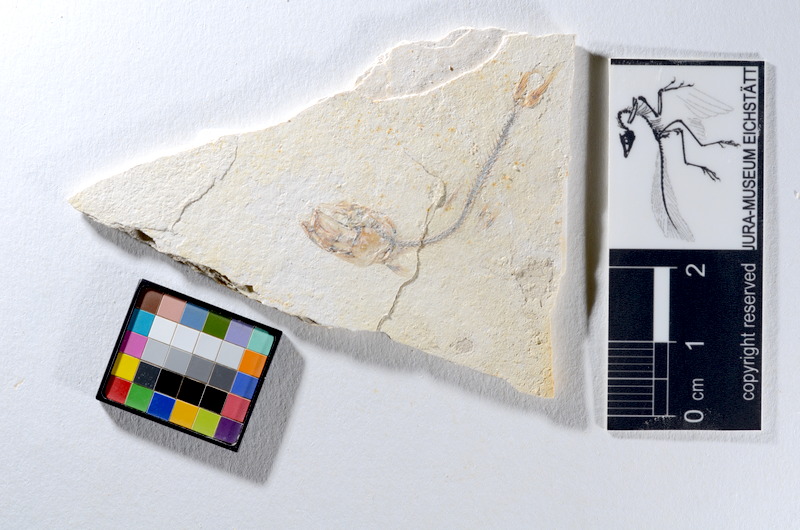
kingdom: Animalia
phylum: Chordata
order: Salmoniformes
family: Orthogonikleithridae
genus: Orthogonikleithrus
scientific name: Orthogonikleithrus hoelli
